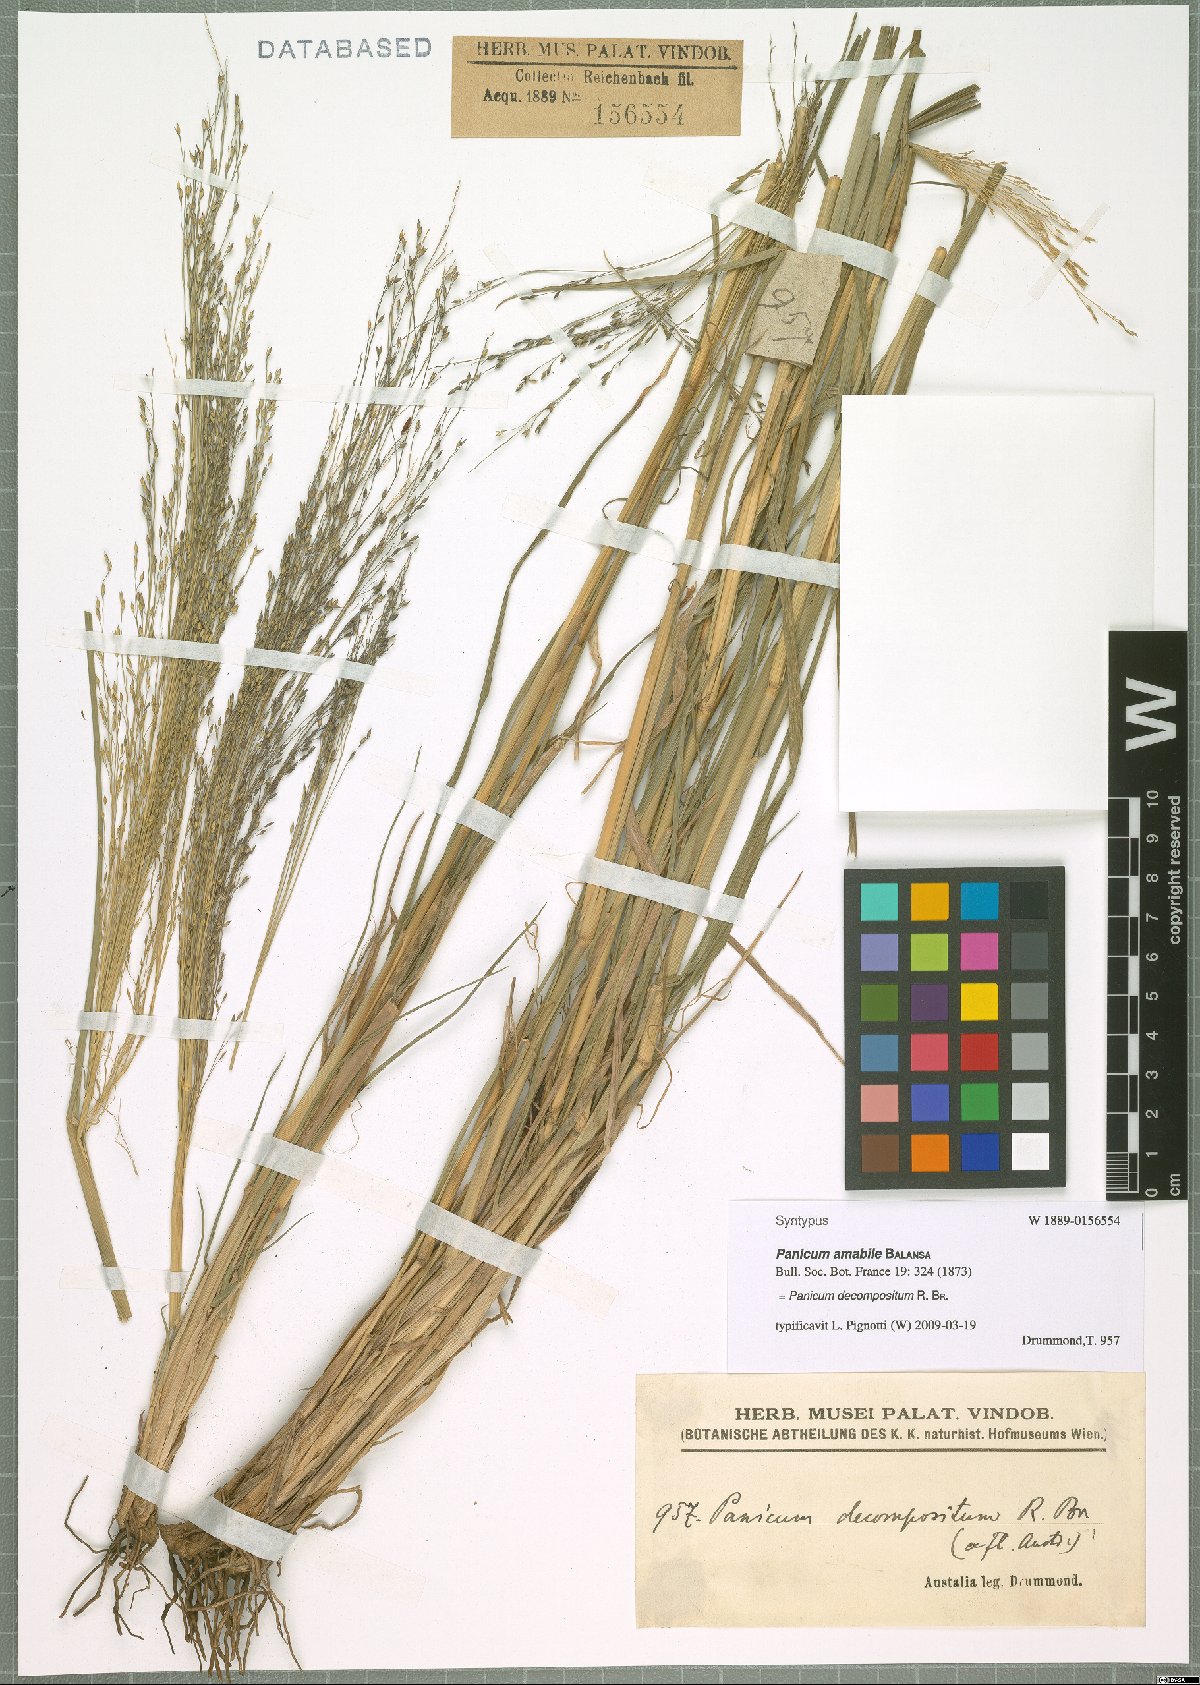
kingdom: Plantae
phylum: Tracheophyta
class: Liliopsida
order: Poales
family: Poaceae
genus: Panicum
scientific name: Panicum decompositum
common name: Australian millet
